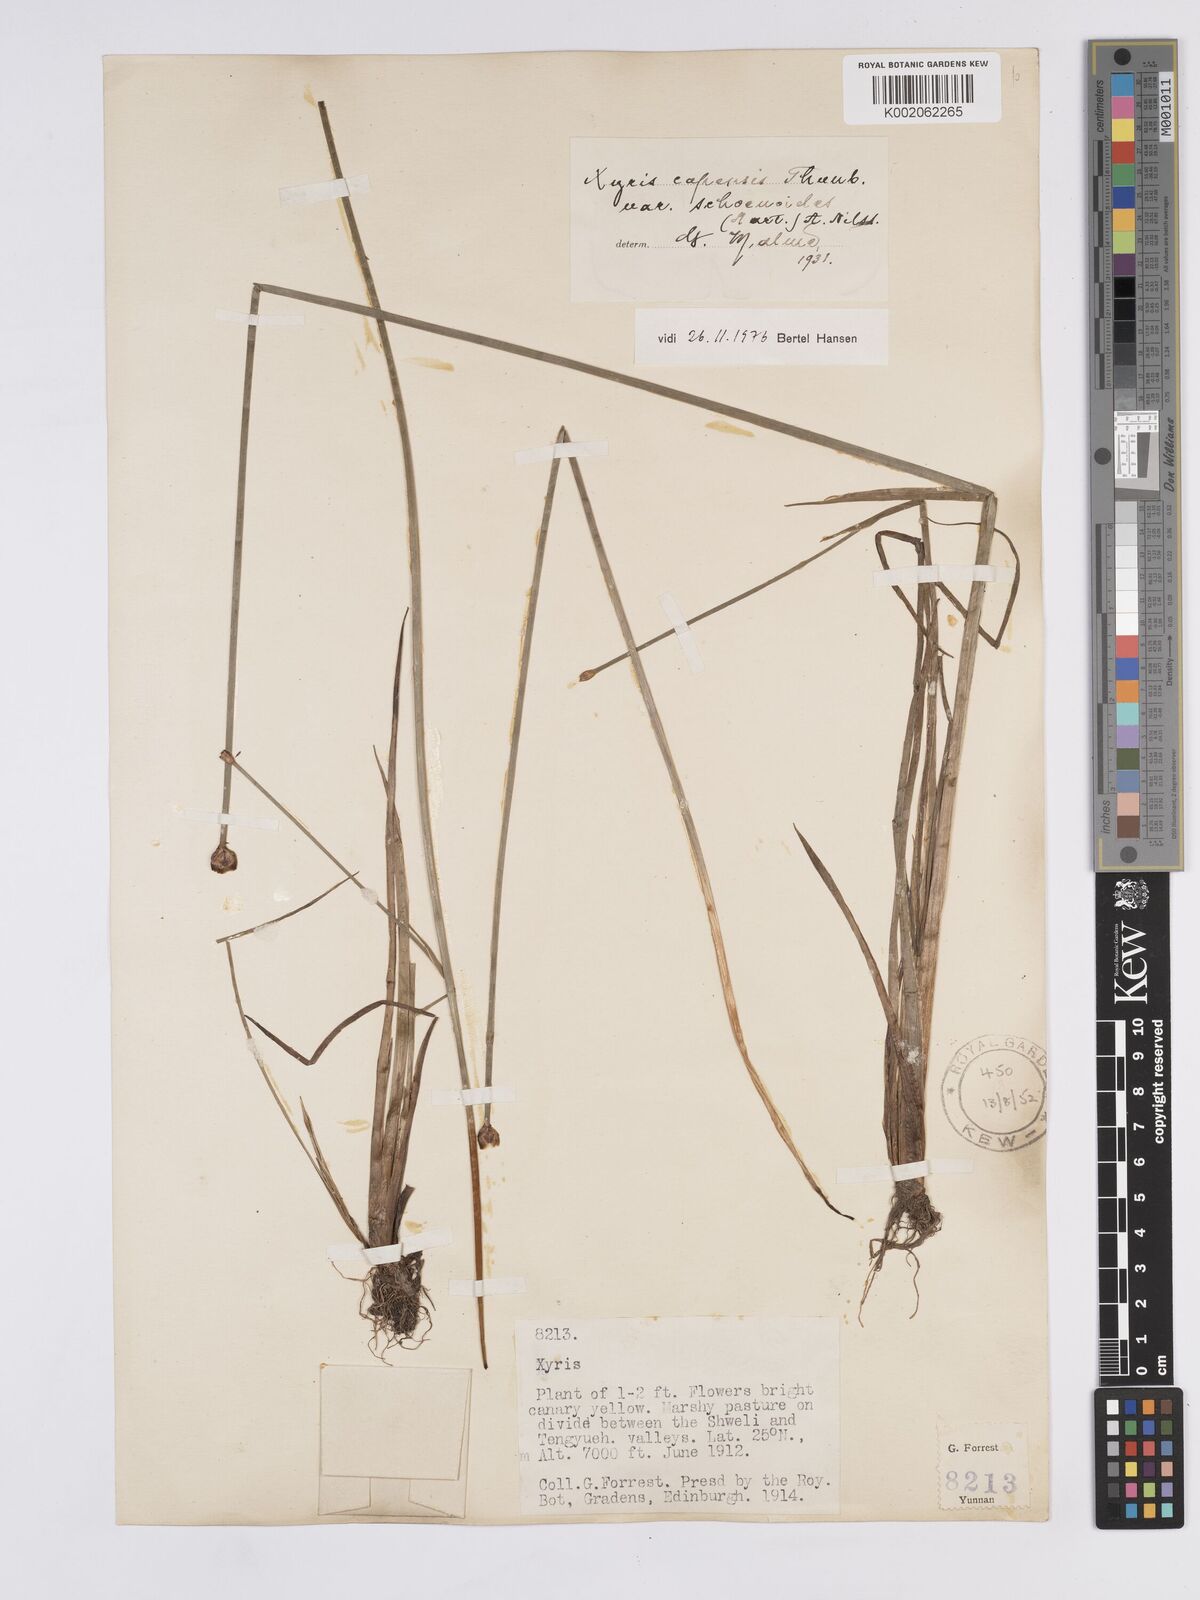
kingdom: Plantae
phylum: Tracheophyta
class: Liliopsida
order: Poales
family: Xyridaceae
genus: Xyris
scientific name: Xyris capensis
